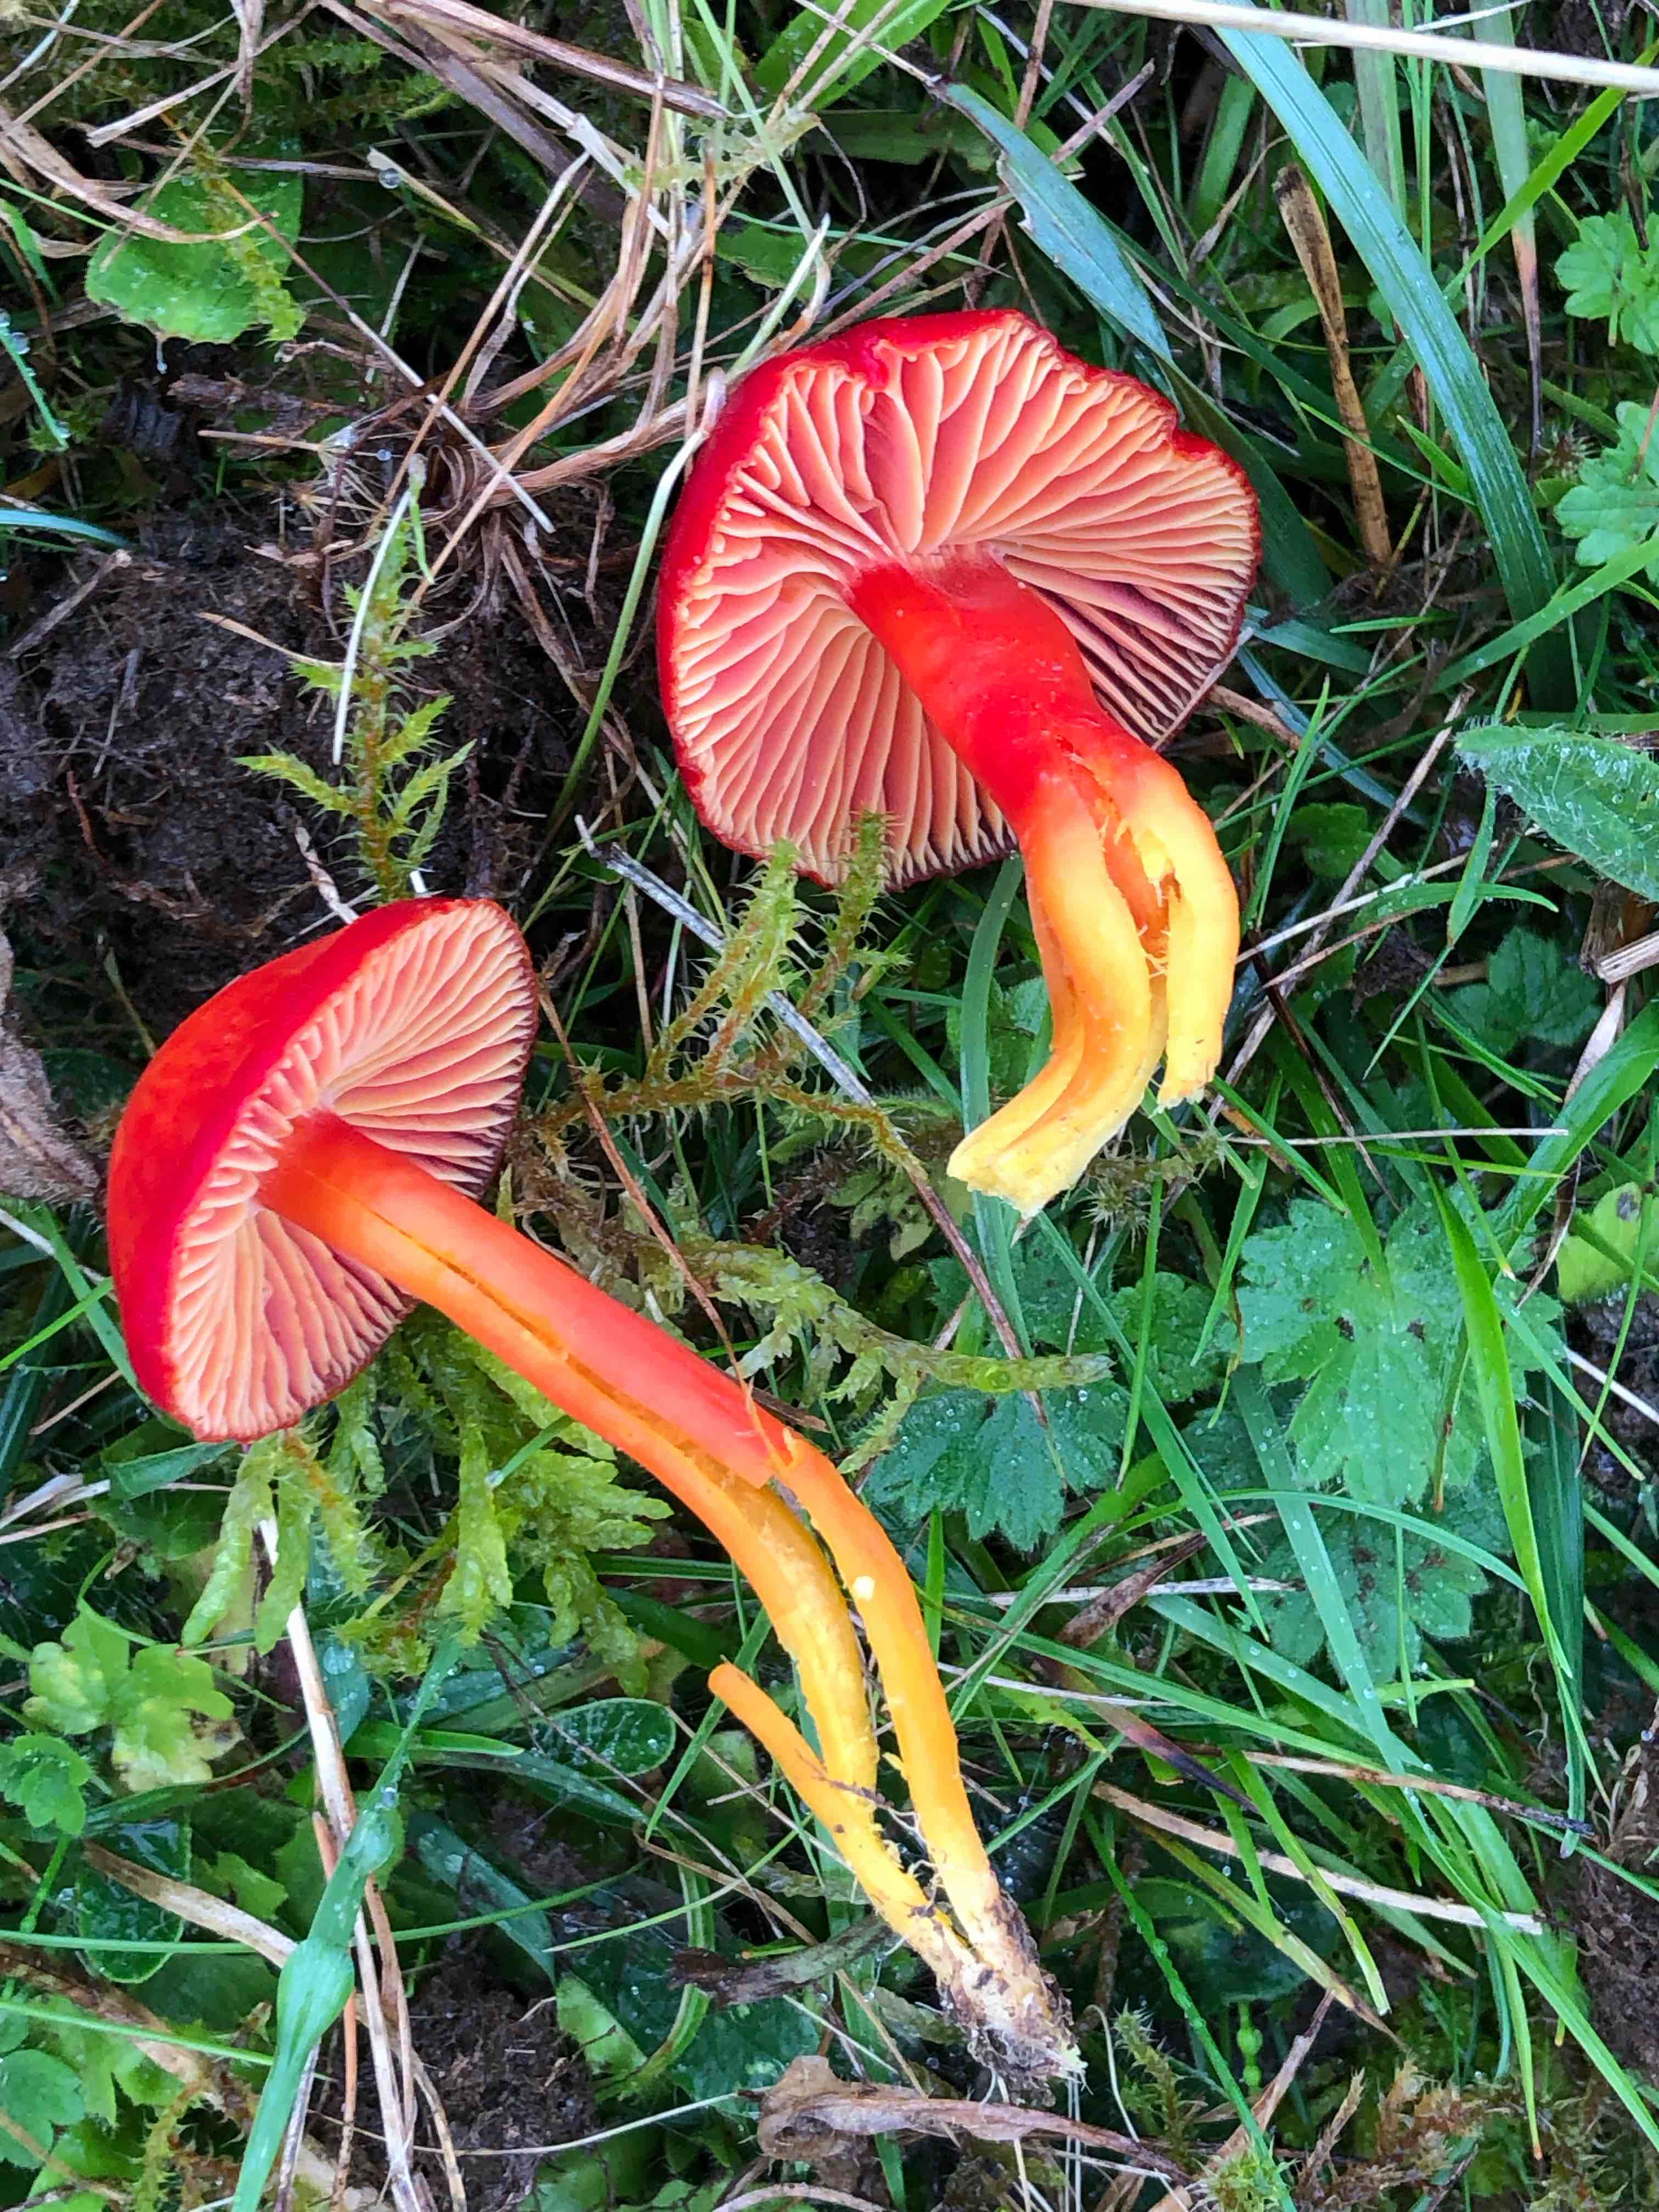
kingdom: Fungi
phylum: Basidiomycota
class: Agaricomycetes
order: Agaricales
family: Hygrophoraceae
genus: Hygrocybe
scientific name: Hygrocybe coccinea
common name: cinnober-vokshat
